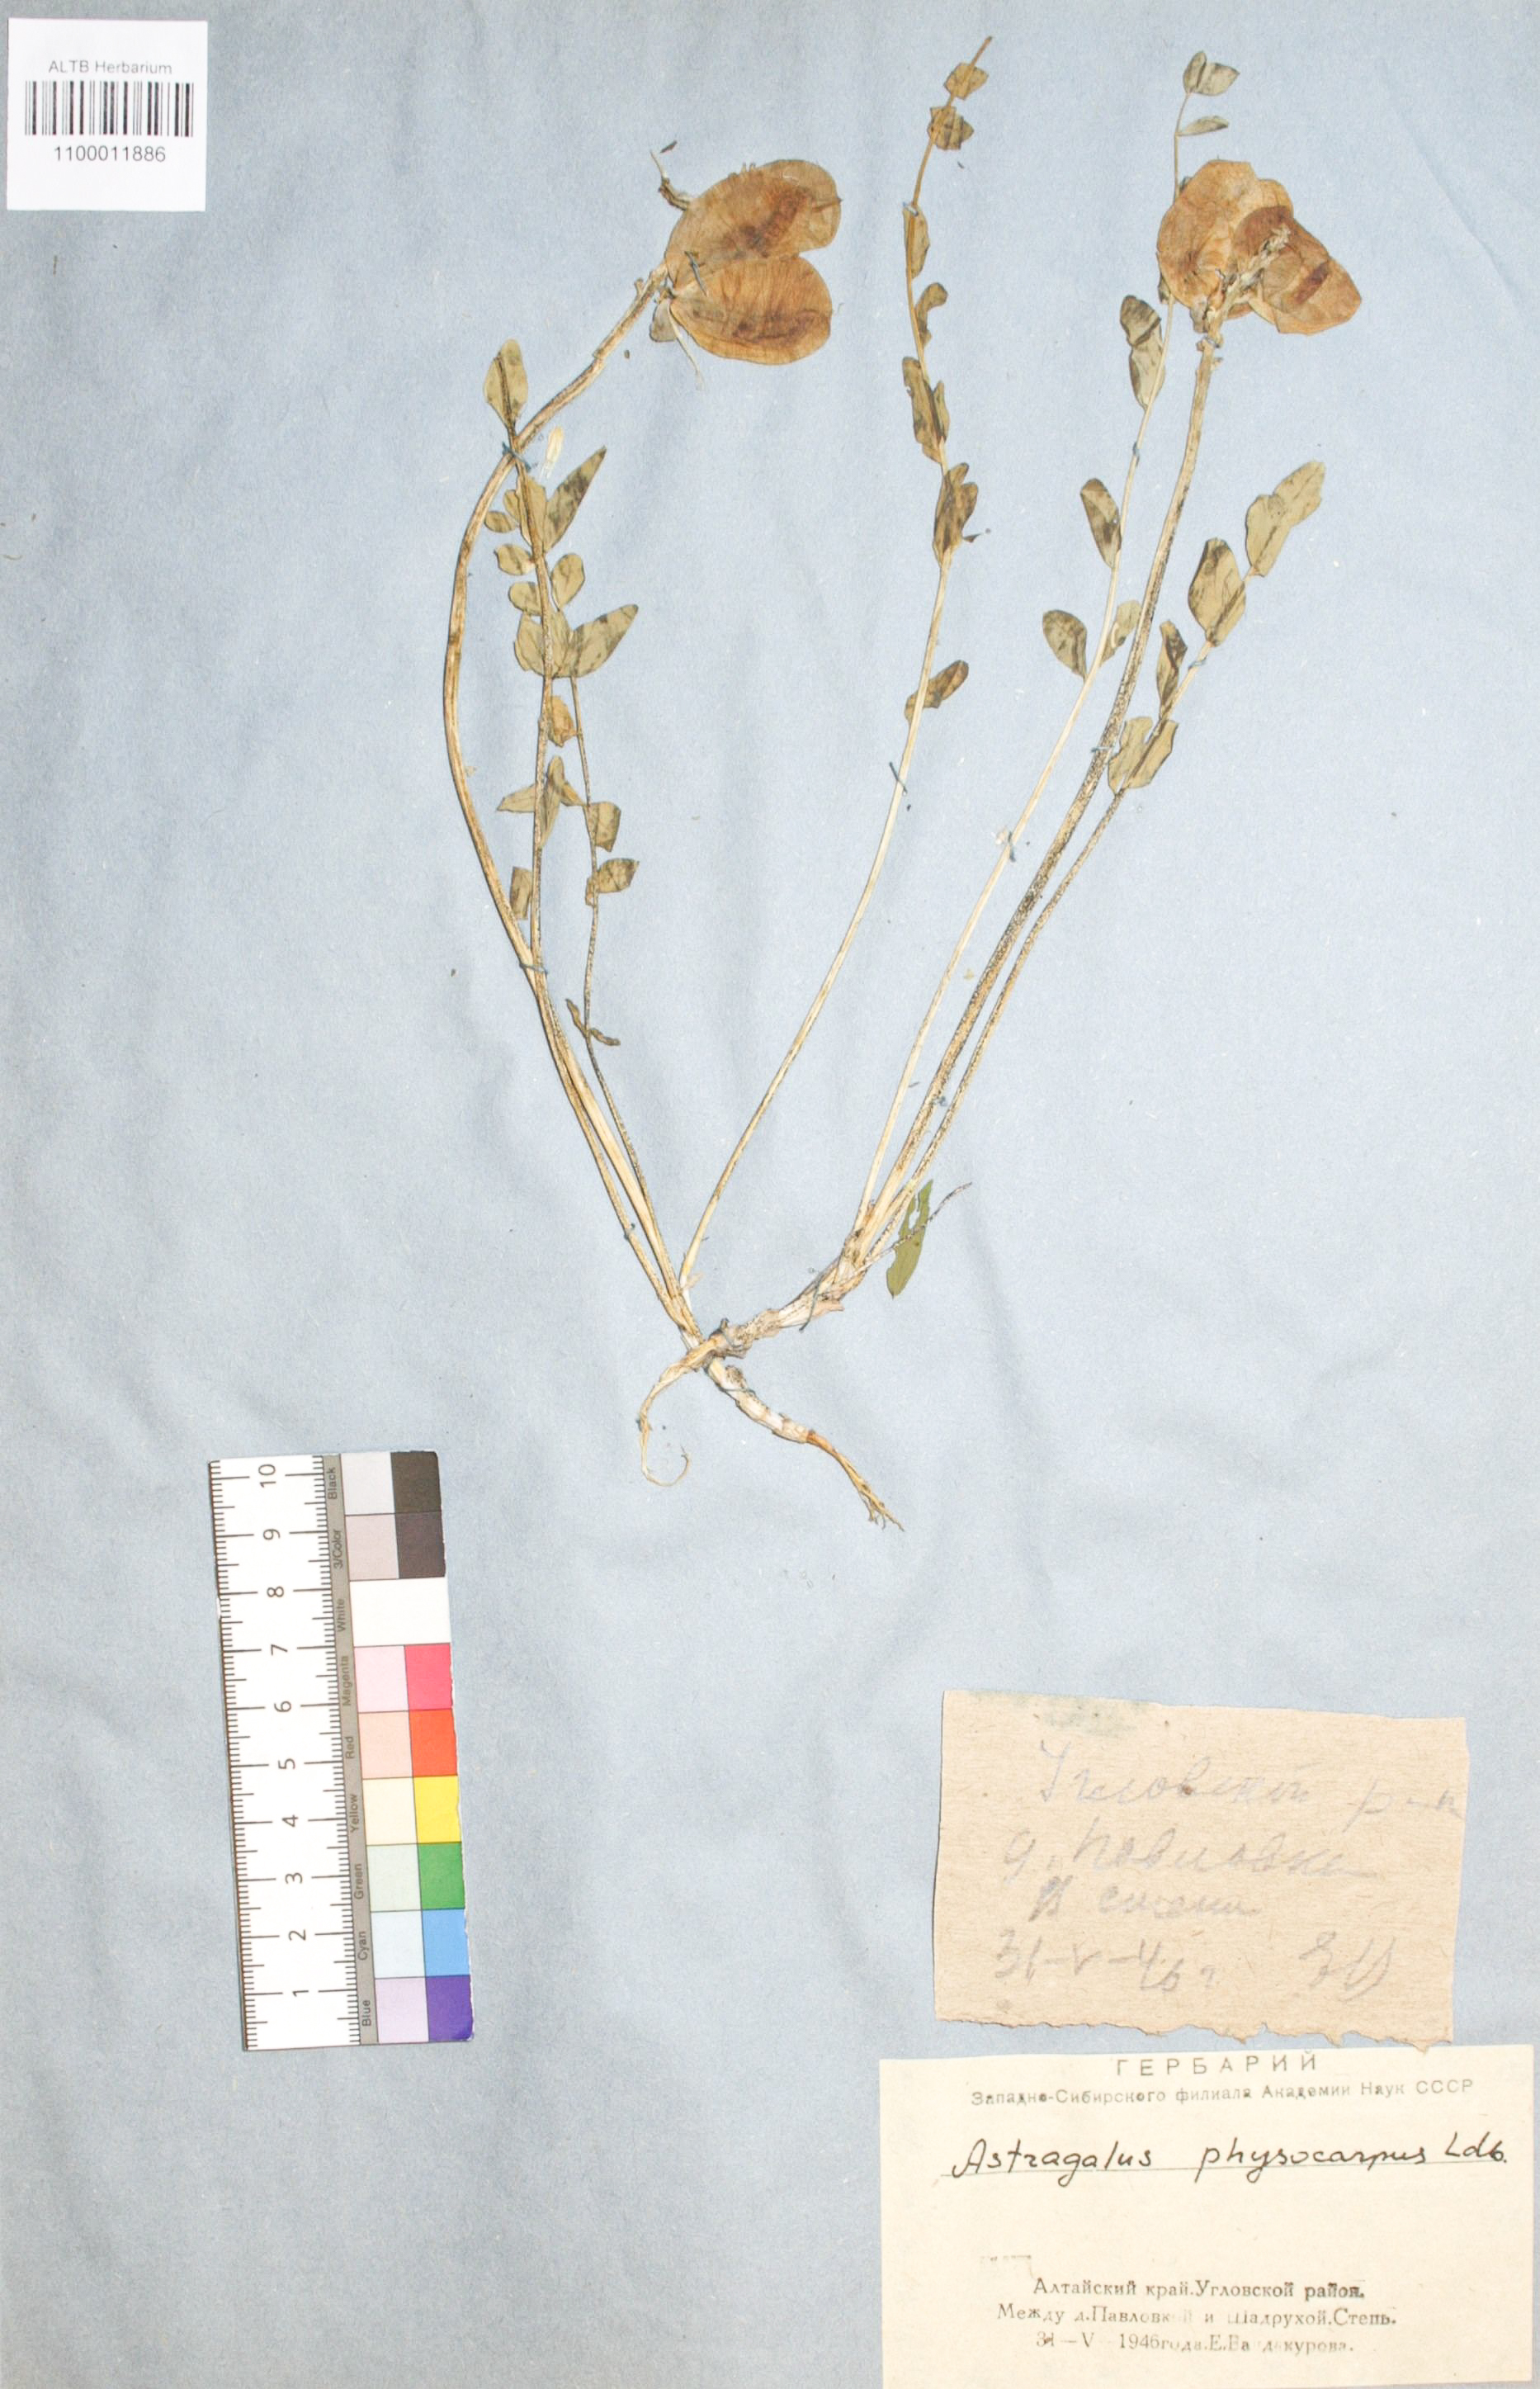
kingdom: Plantae
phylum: Tracheophyta
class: Magnoliopsida
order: Fabales
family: Fabaceae
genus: Astragalus
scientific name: Astragalus physocarpus
